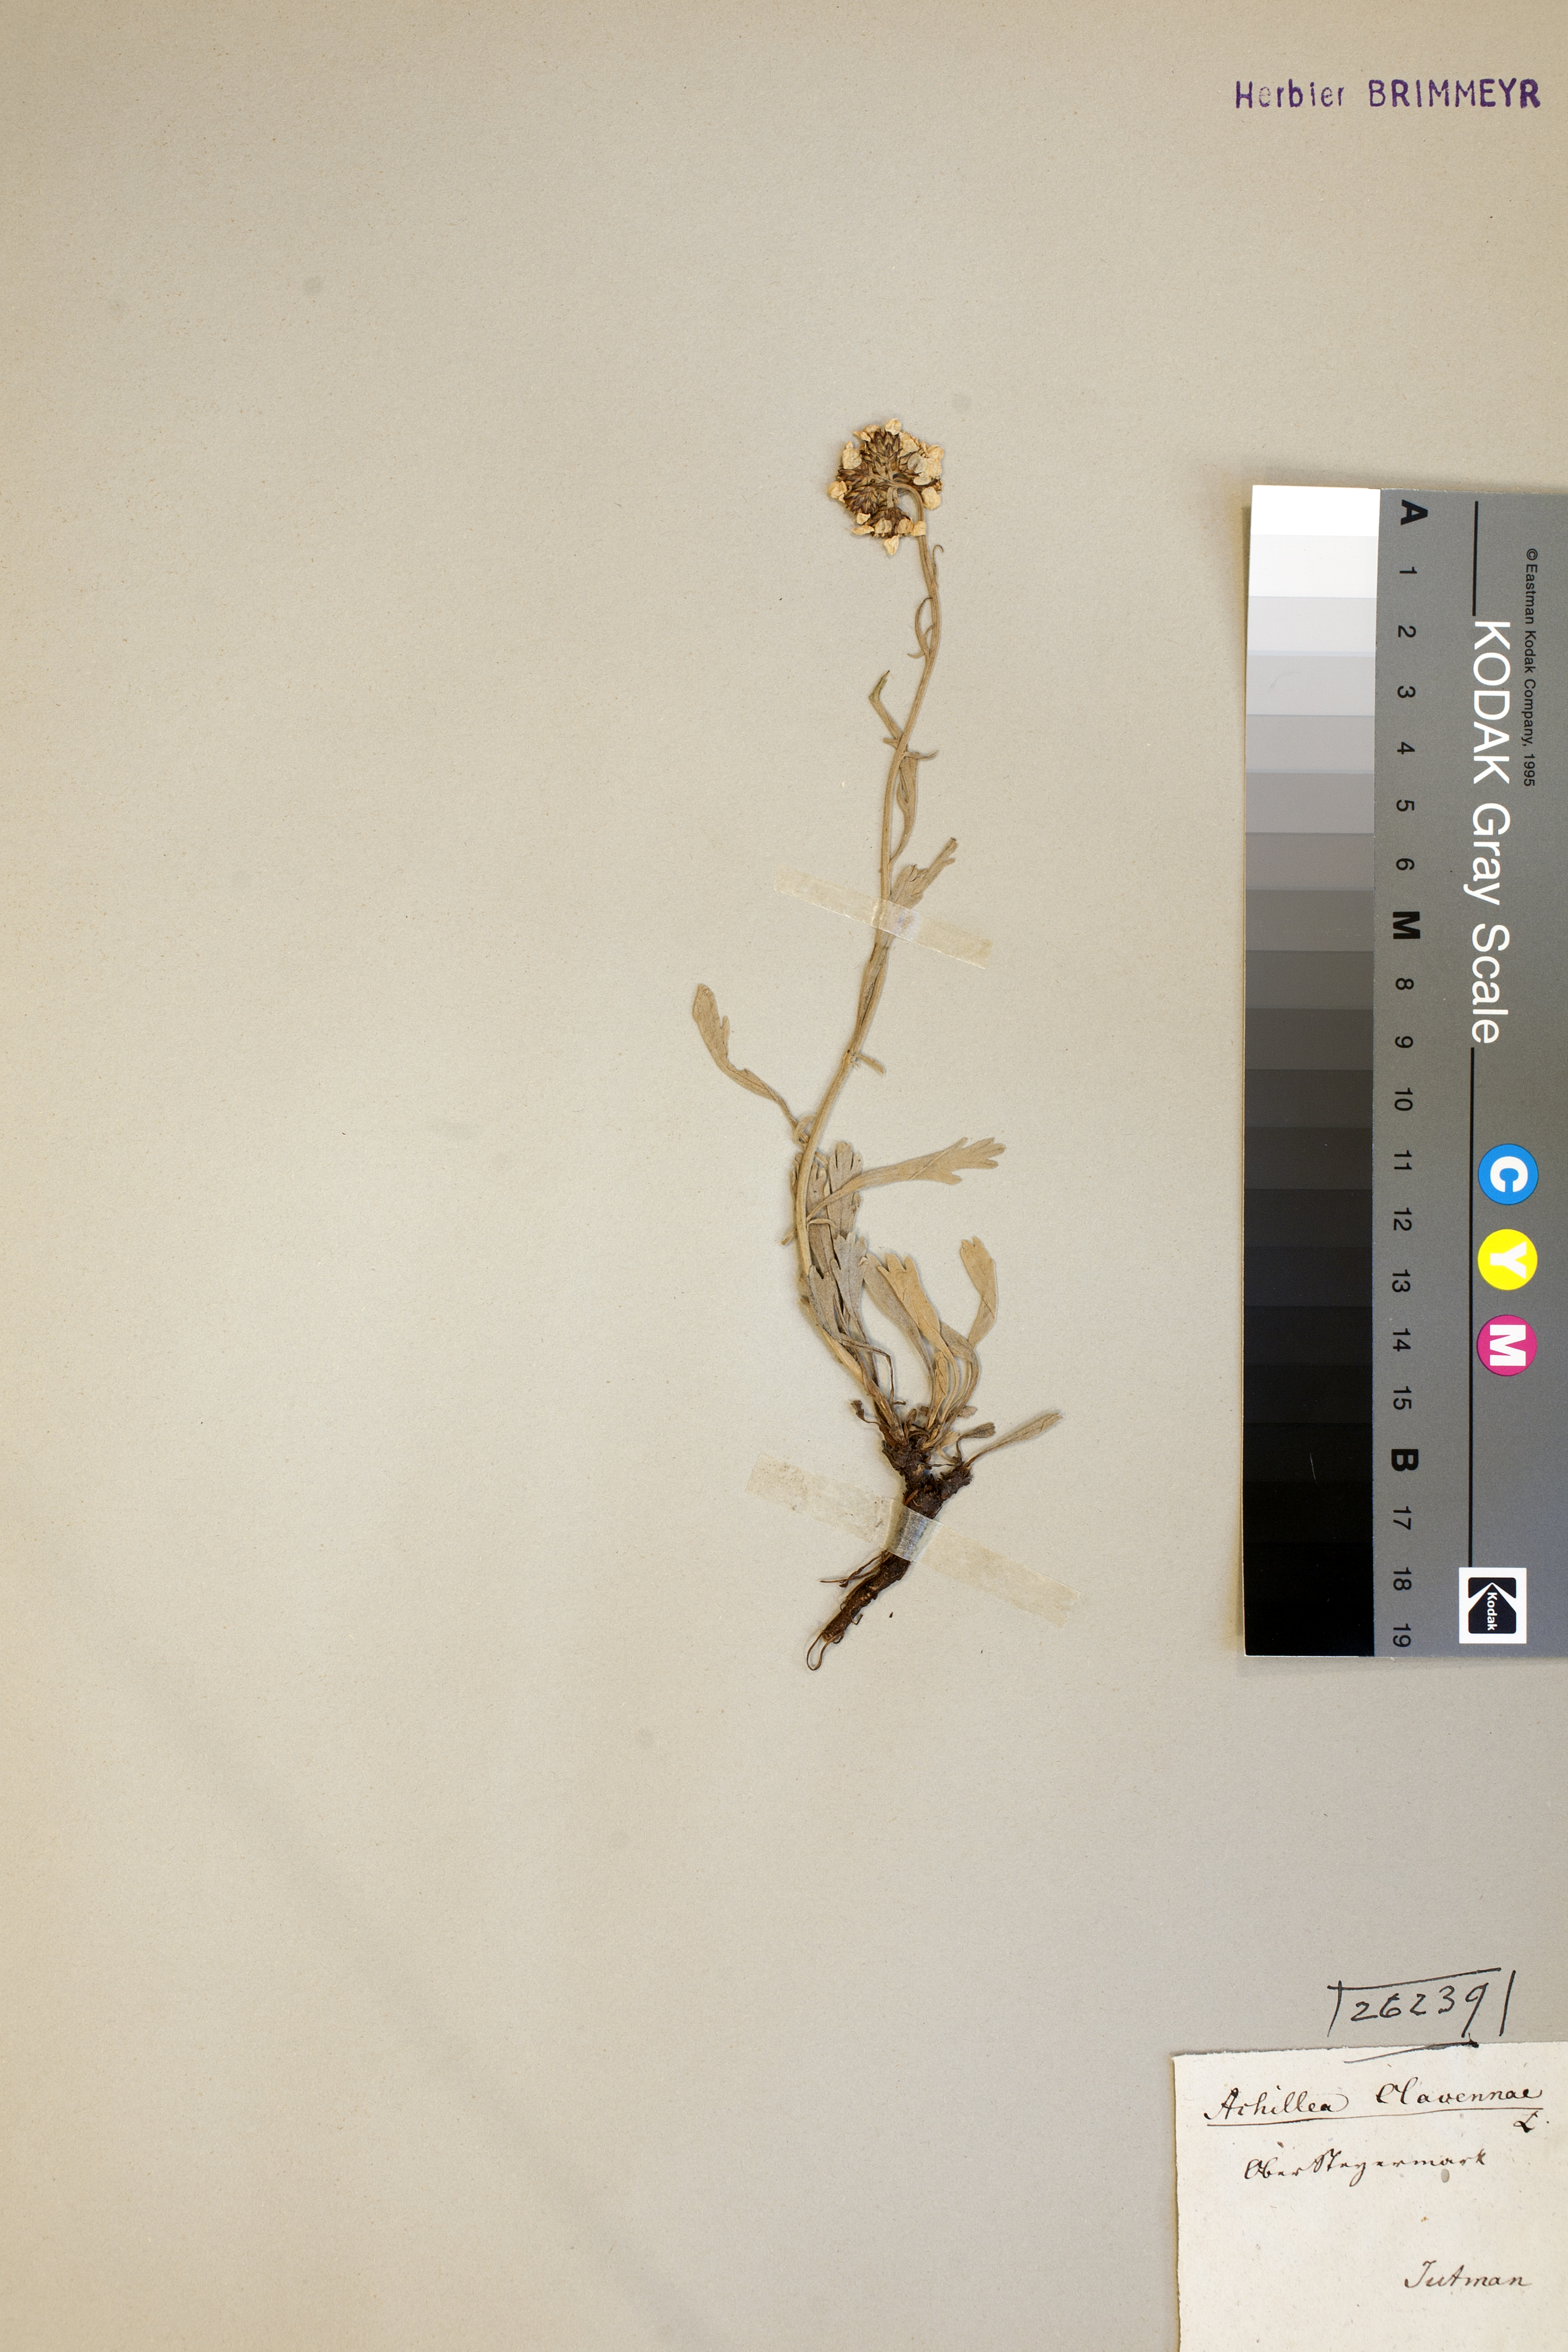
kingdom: Plantae
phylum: Tracheophyta
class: Magnoliopsida
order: Asterales
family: Asteraceae
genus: Achillea
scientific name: Achillea clavennae
